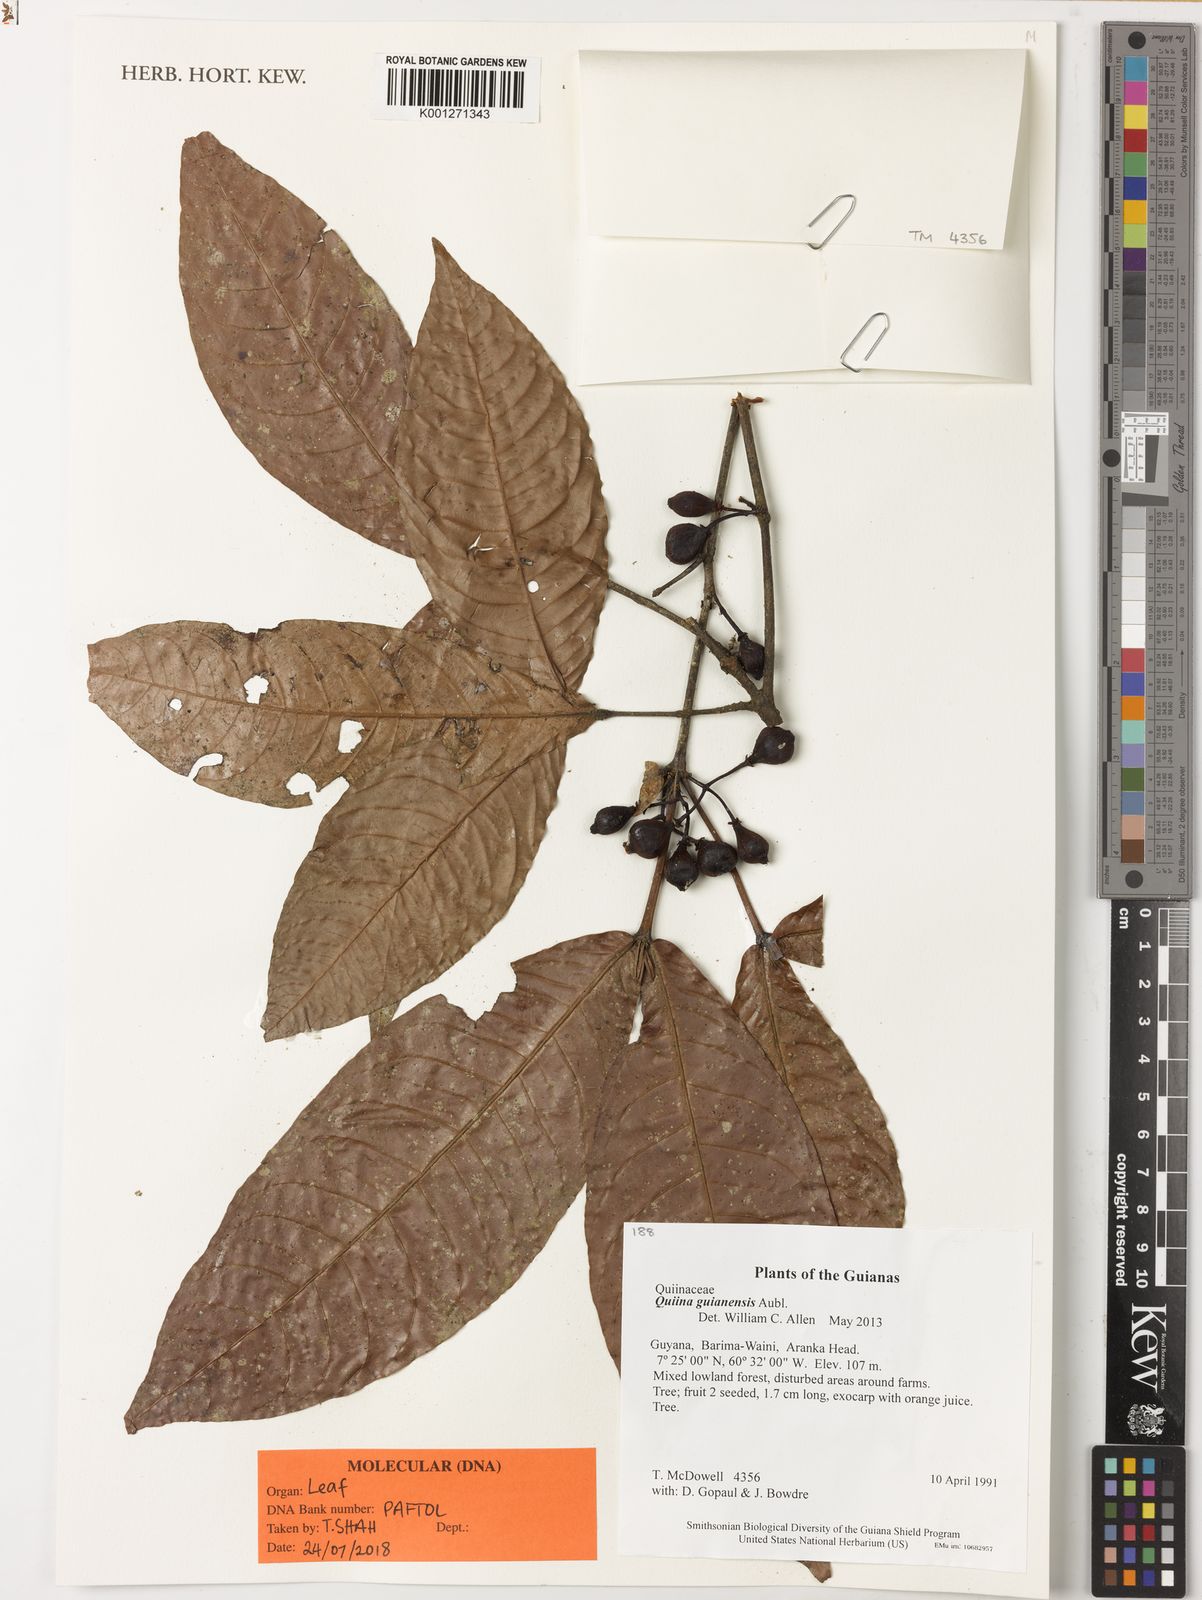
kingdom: Plantae
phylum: Tracheophyta
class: Magnoliopsida
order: Malpighiales
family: Quiinaceae
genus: Quiina
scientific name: Quiina guianensis
